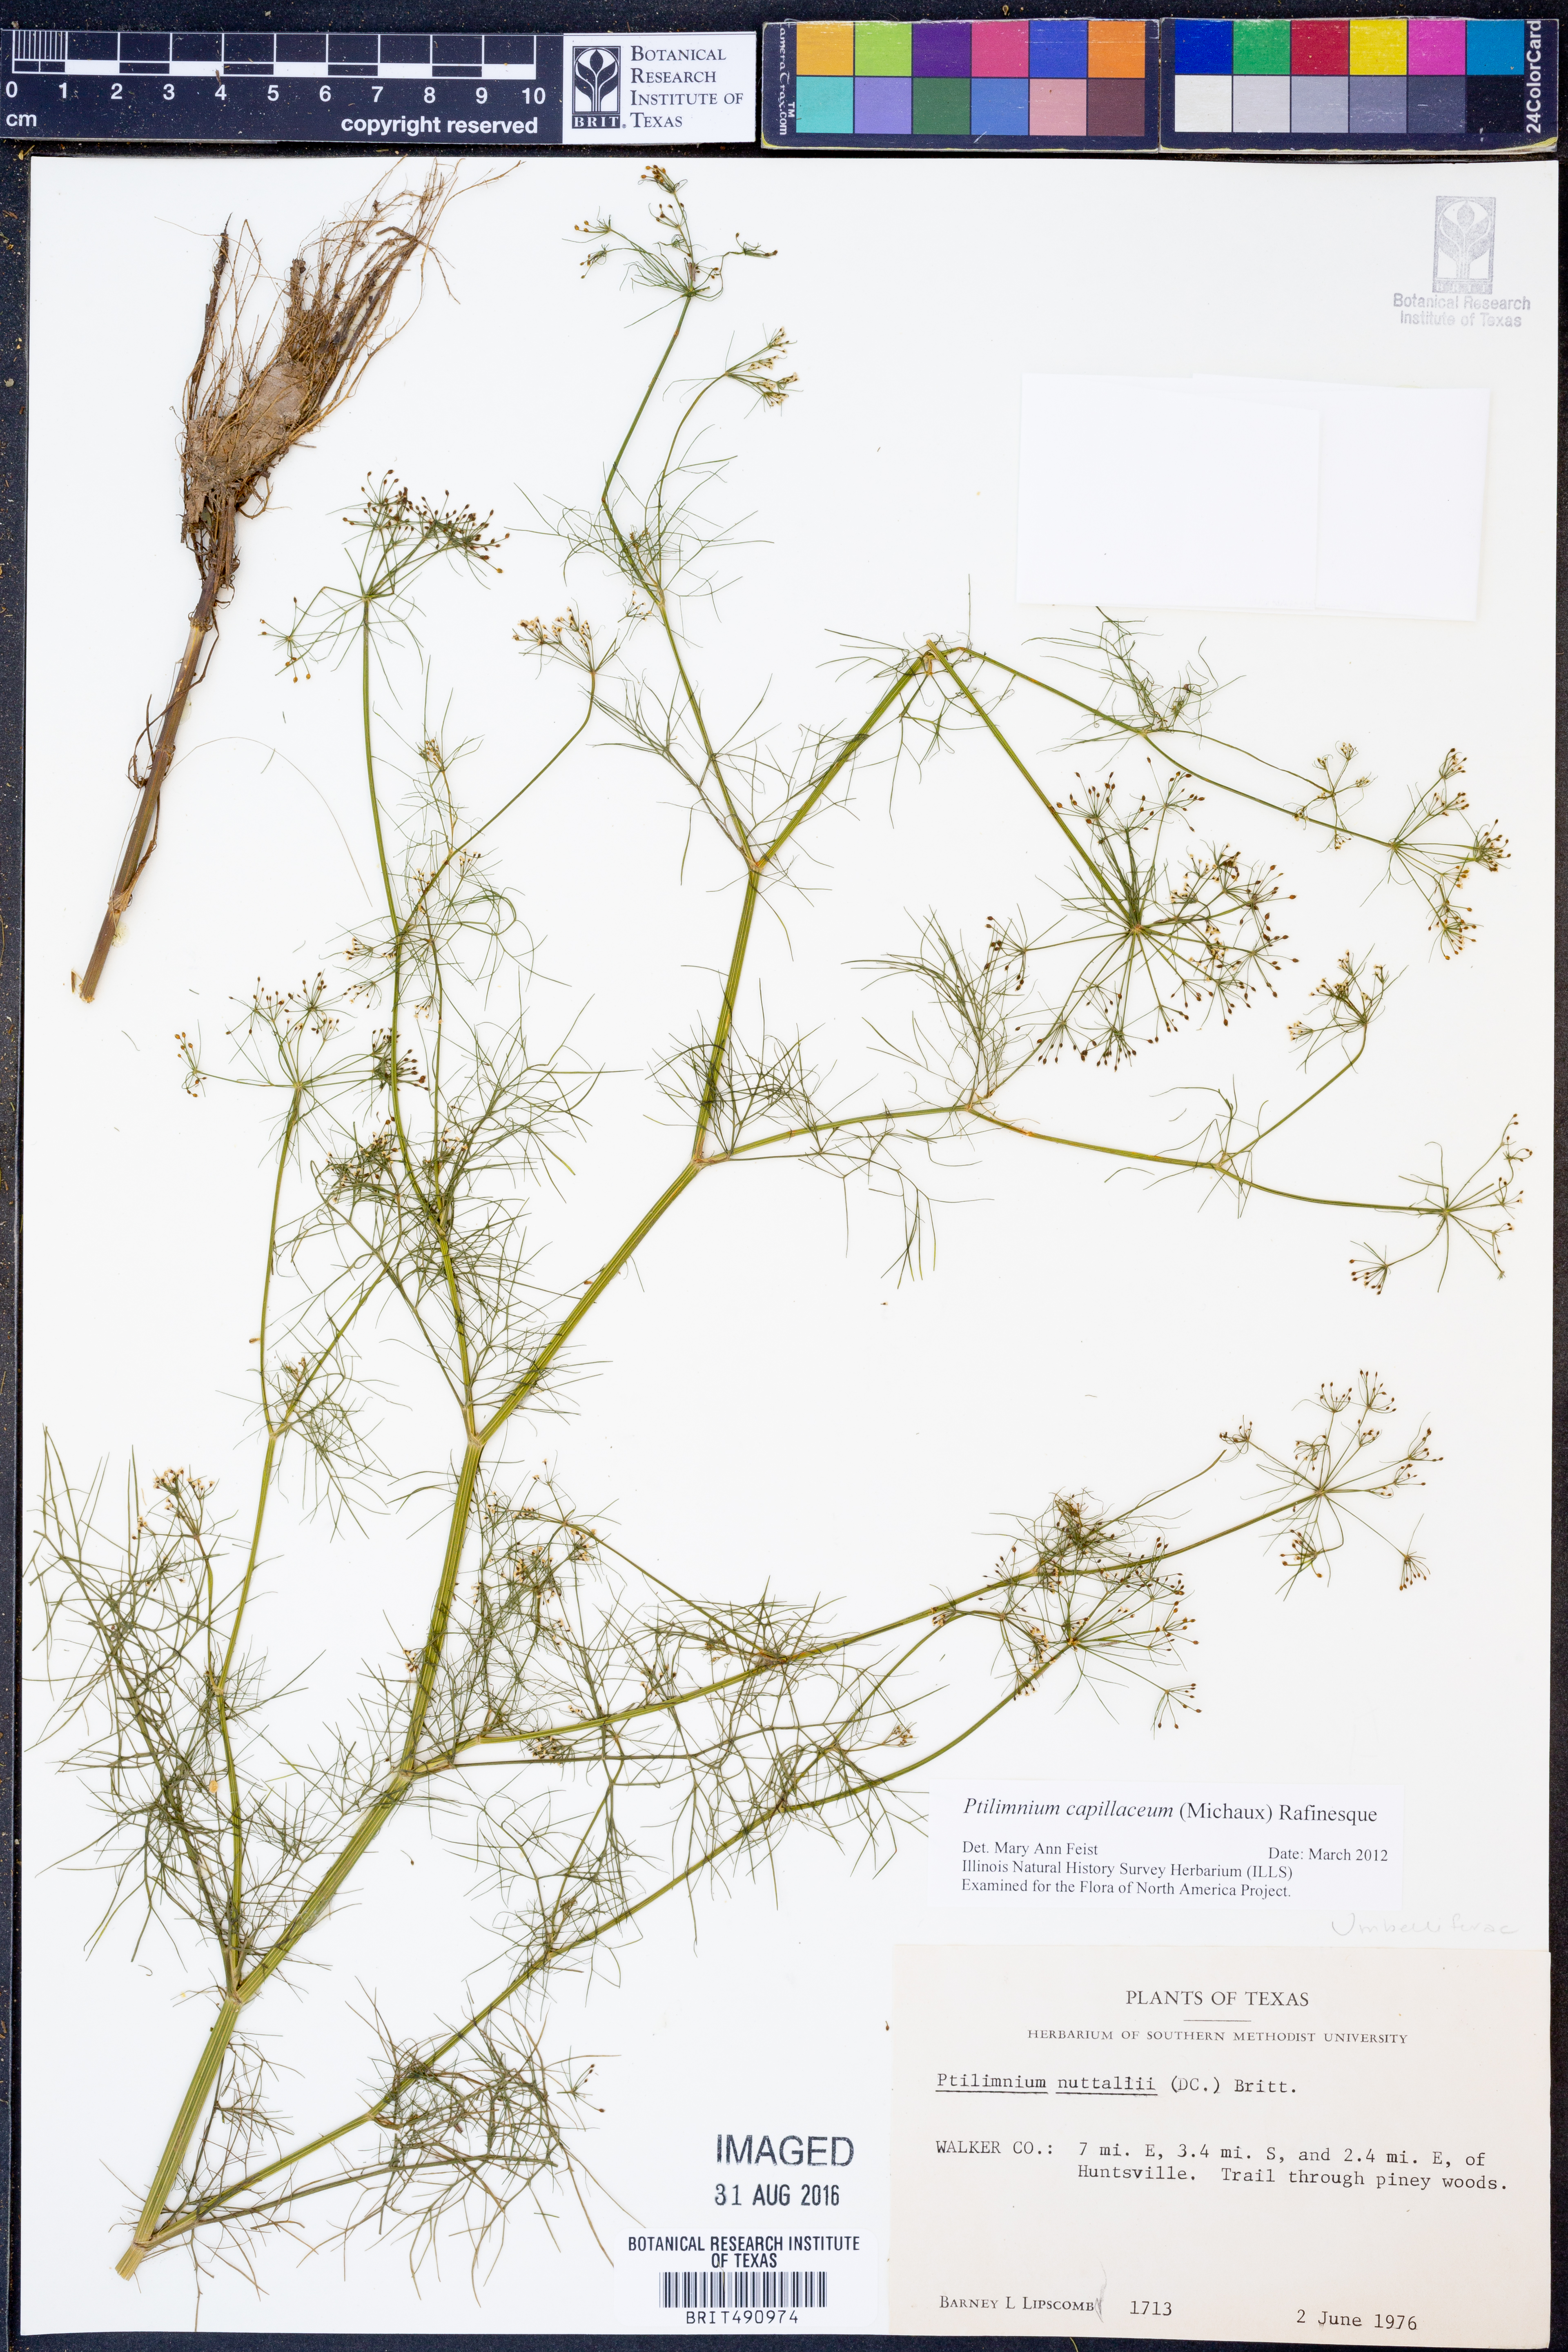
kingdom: Plantae
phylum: Tracheophyta
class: Magnoliopsida
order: Apiales
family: Apiaceae
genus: Ptilimnium
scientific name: Ptilimnium nuttallii
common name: Ozark bishop's-weed
